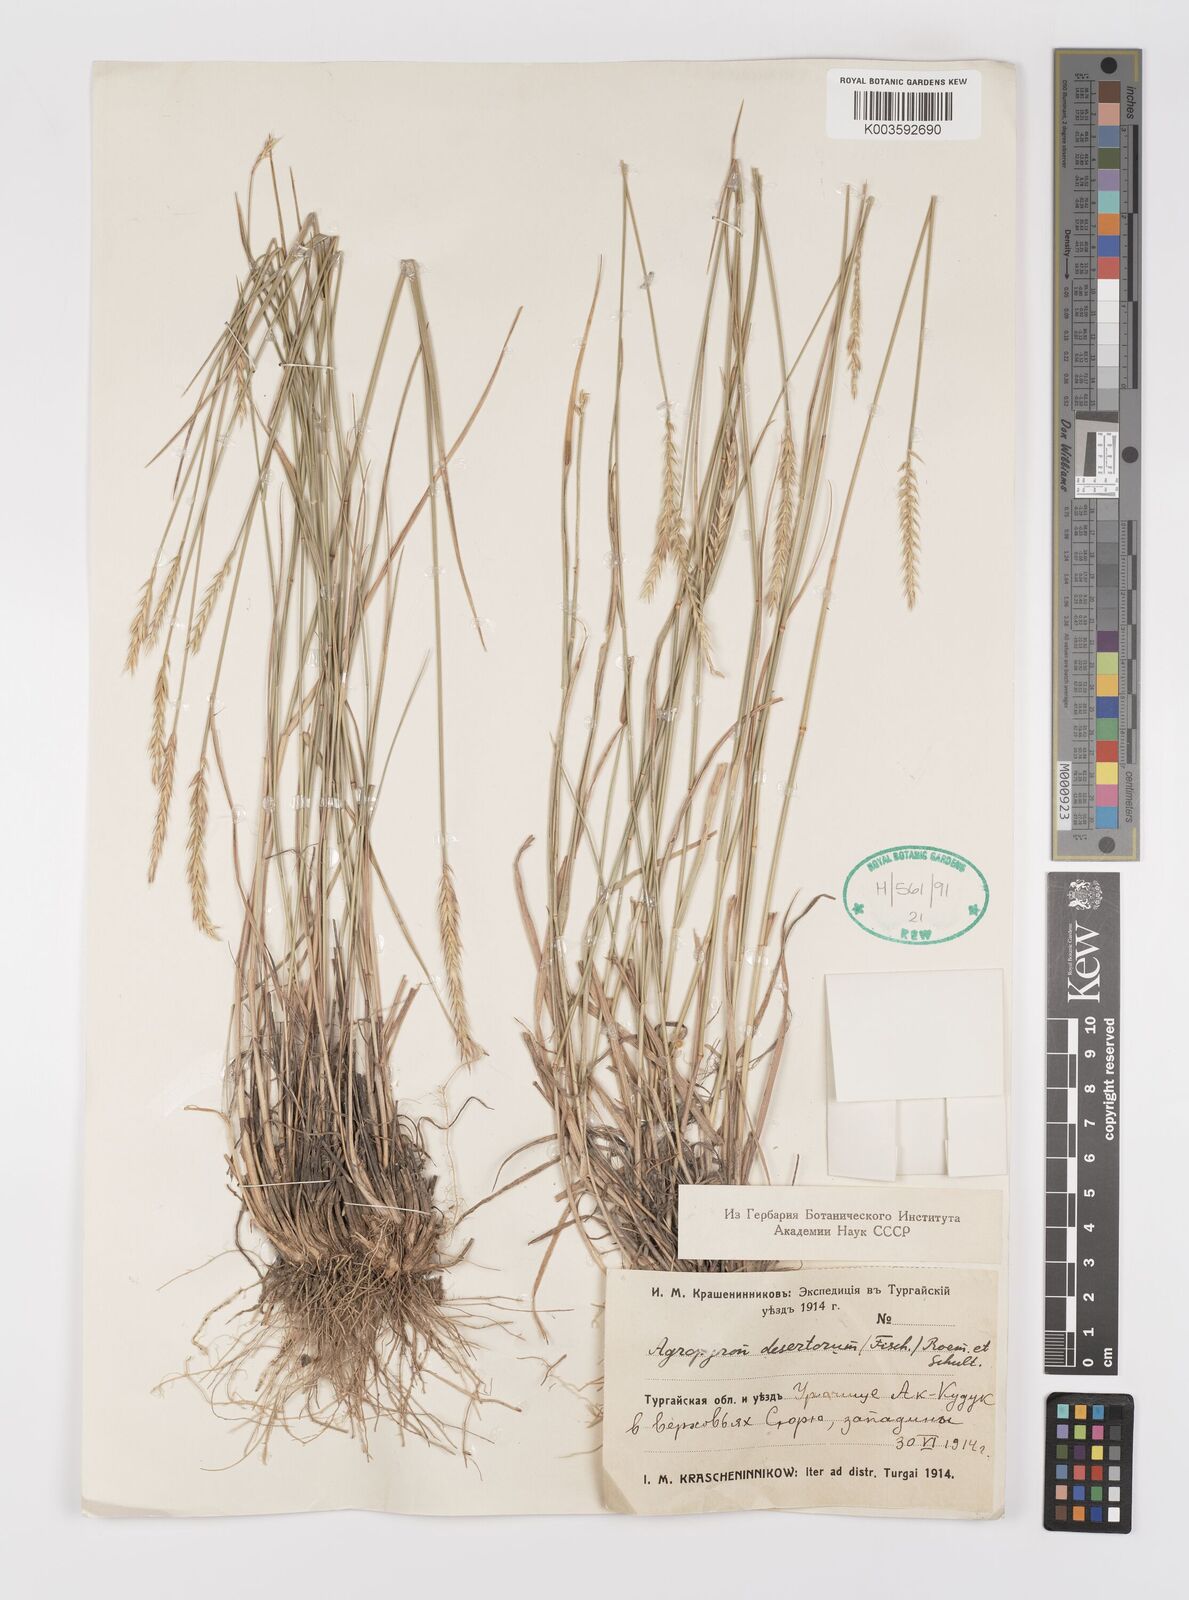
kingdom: Plantae
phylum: Tracheophyta
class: Liliopsida
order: Poales
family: Poaceae
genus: Agropyron
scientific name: Agropyron desertorum
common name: Desert wheatgrass
